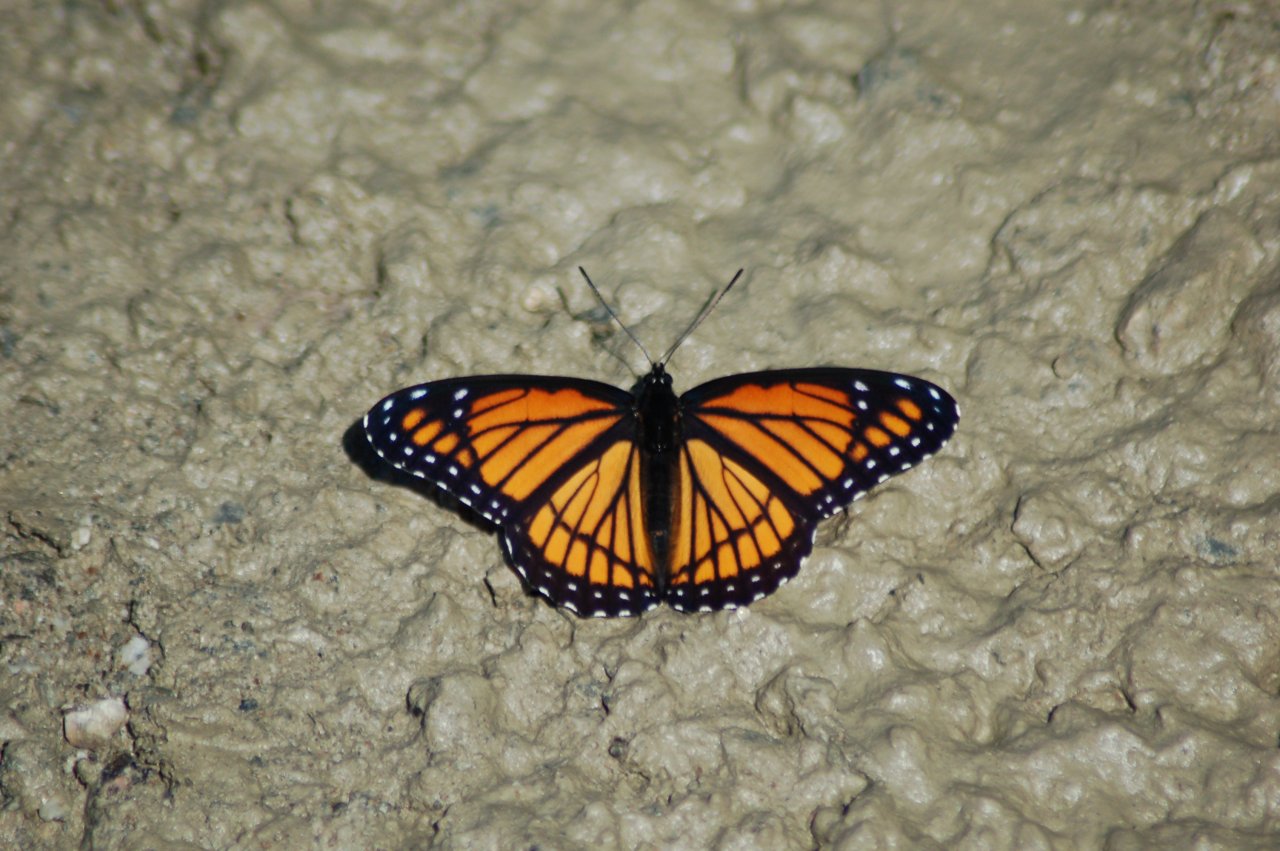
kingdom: Animalia
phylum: Arthropoda
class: Insecta
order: Lepidoptera
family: Nymphalidae
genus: Limenitis
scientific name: Limenitis archippus
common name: Viceroy
